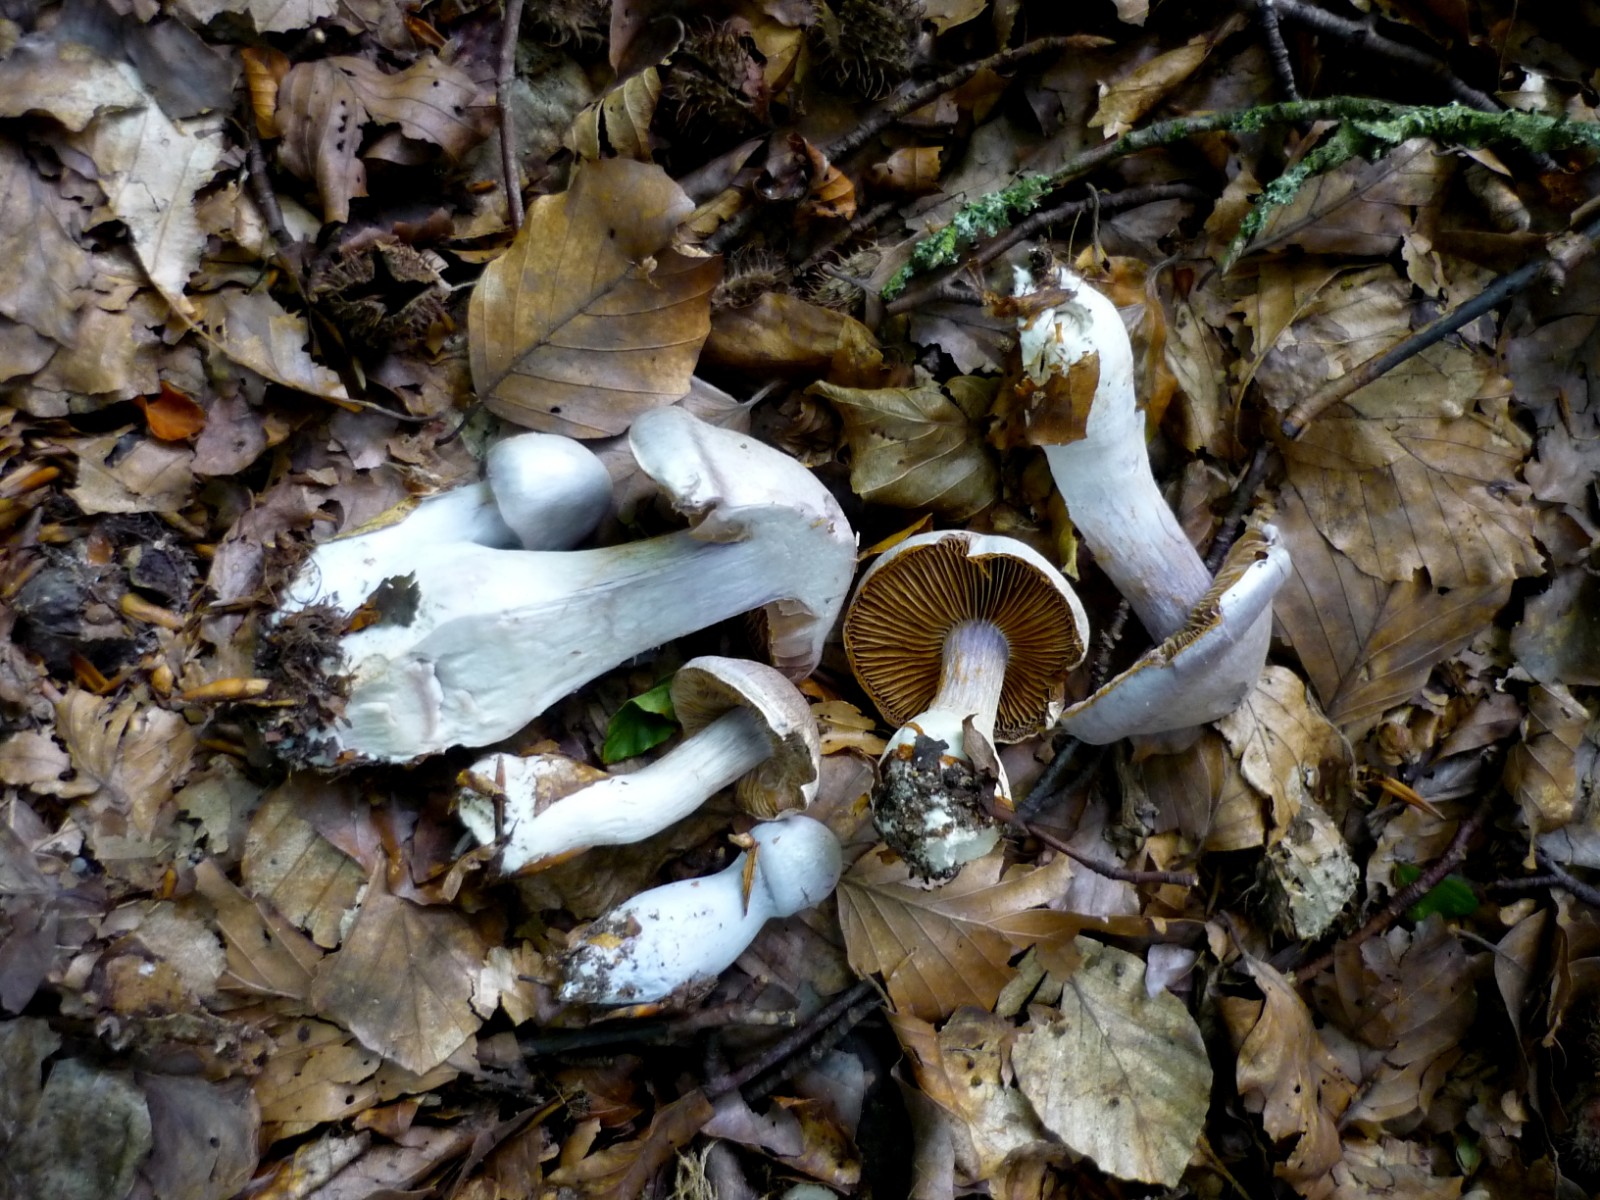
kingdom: Fungi
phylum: Basidiomycota
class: Agaricomycetes
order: Agaricales
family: Cortinariaceae
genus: Cortinarius
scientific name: Cortinarius alboviolaceus
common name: lysviolet slørhat
